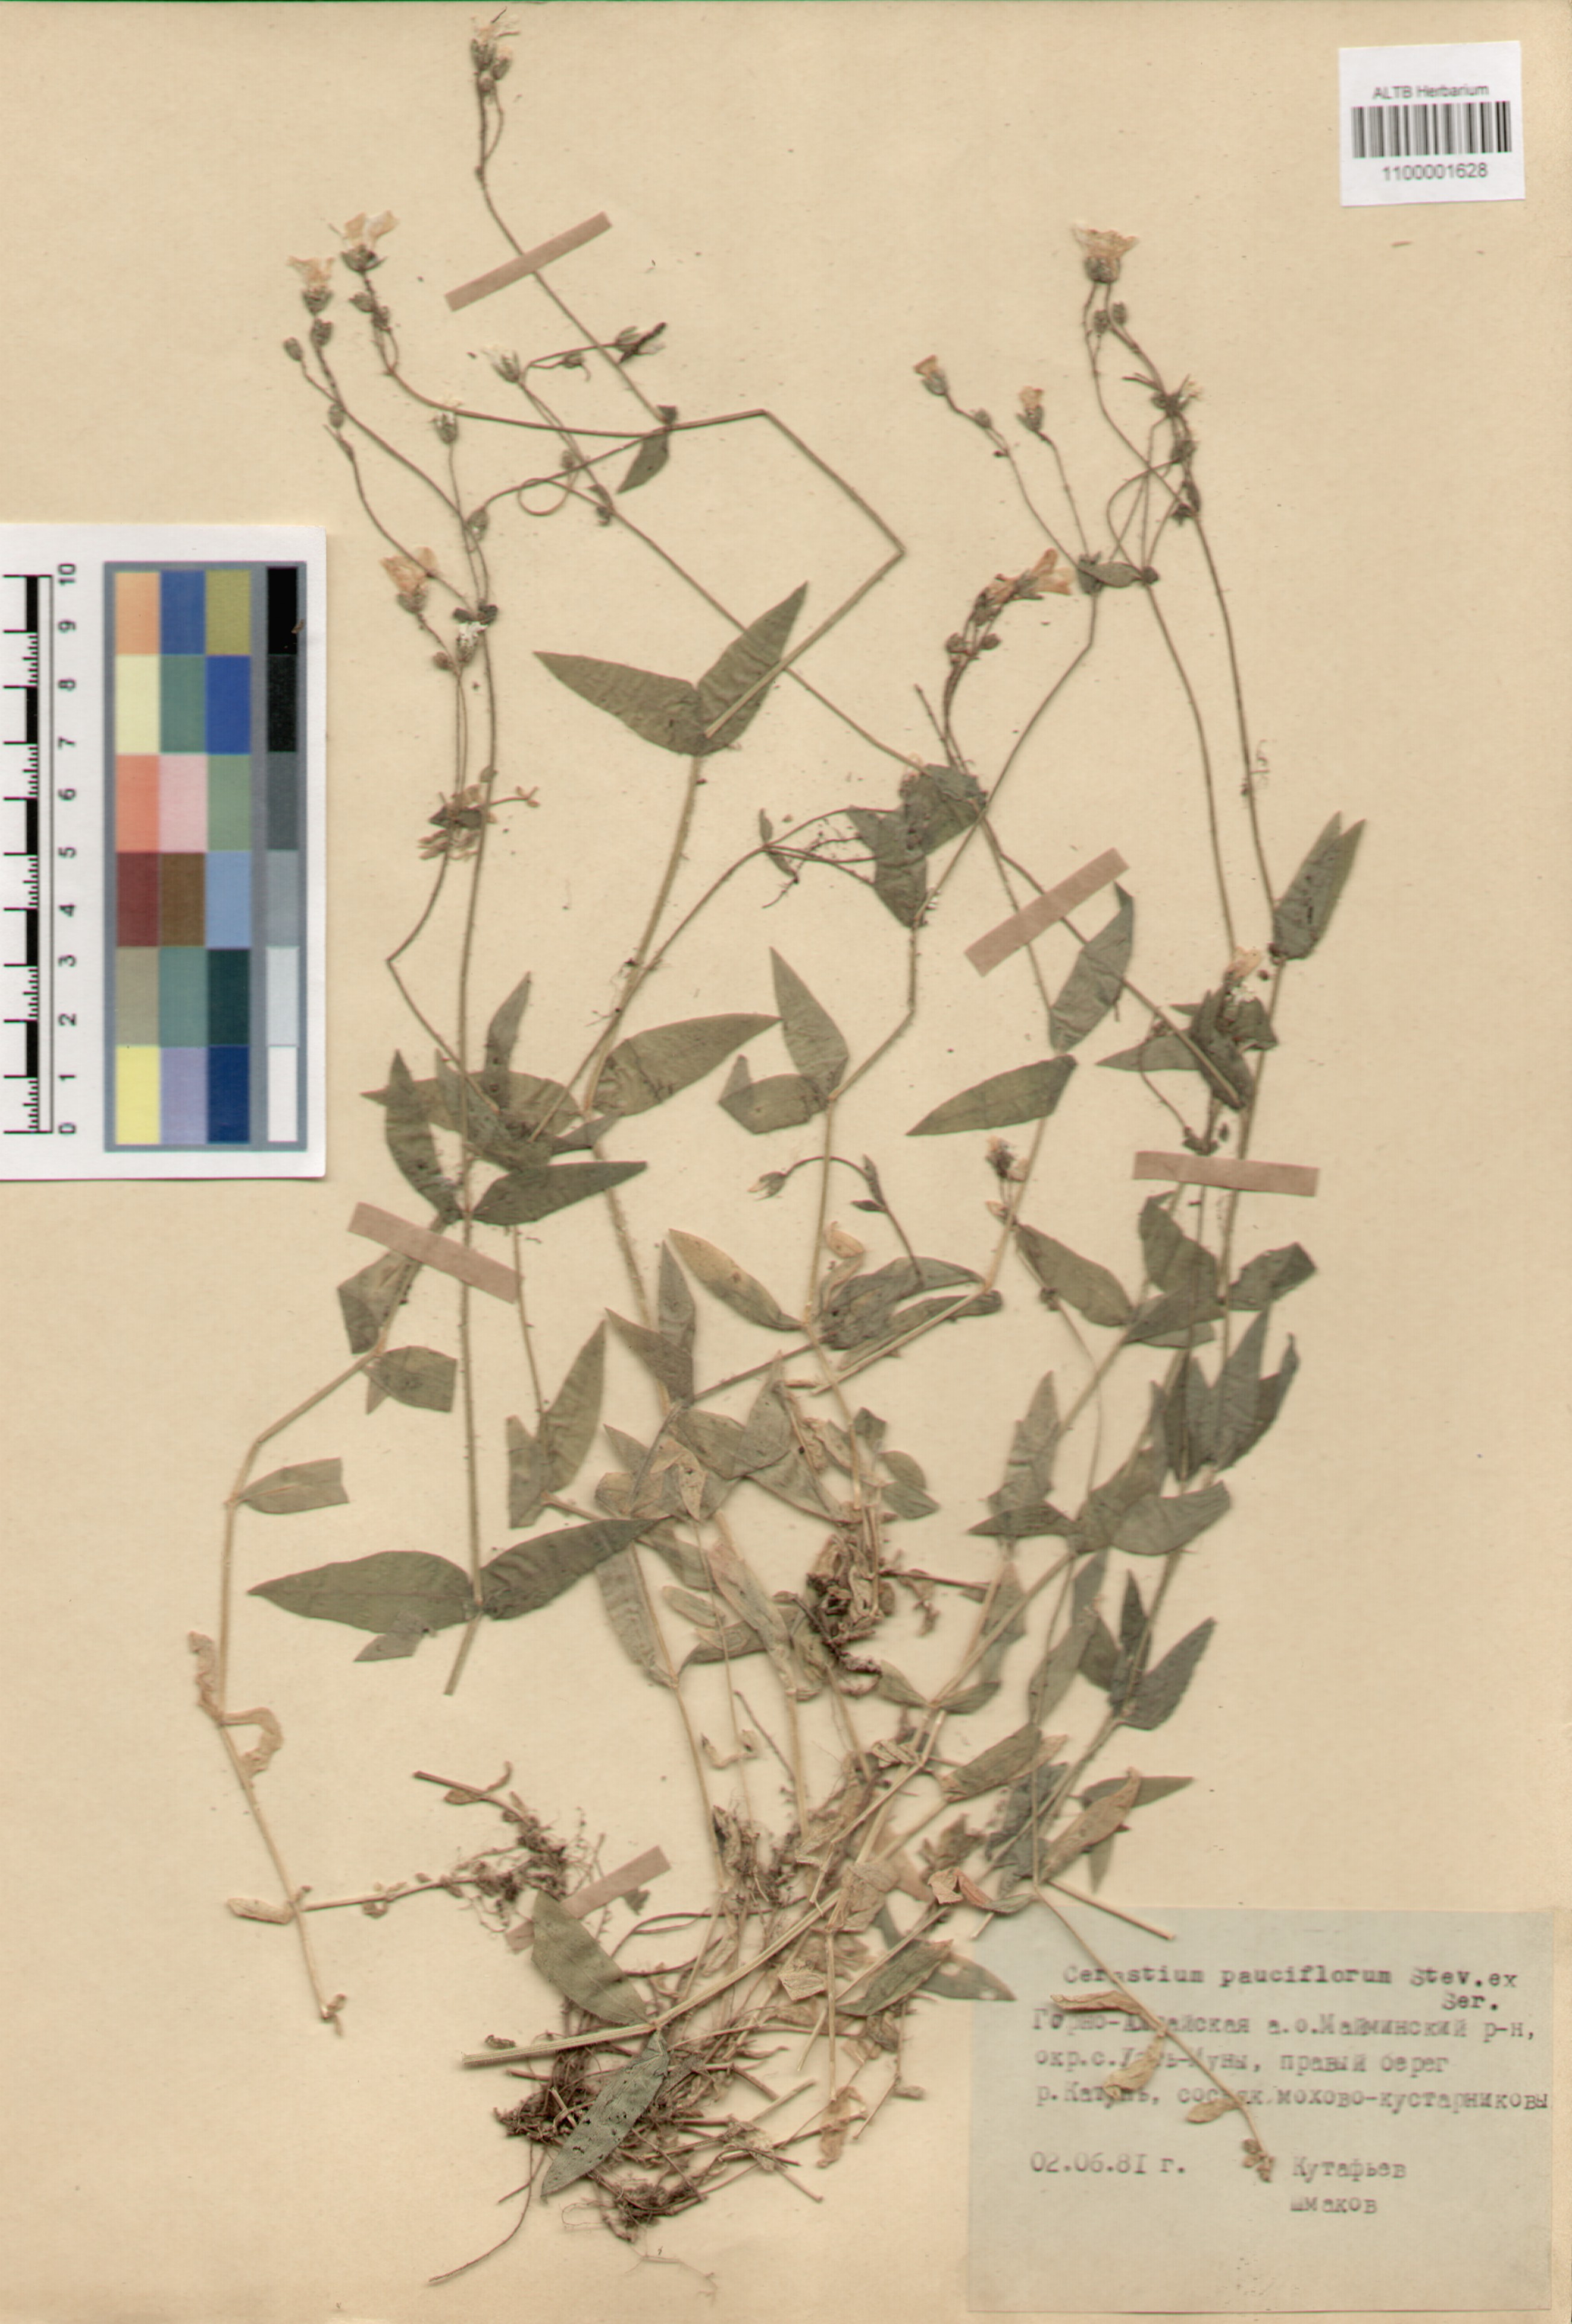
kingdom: Plantae
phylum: Tracheophyta
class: Magnoliopsida
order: Caryophyllales
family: Caryophyllaceae
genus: Cerastium
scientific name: Cerastium pauciflorum
